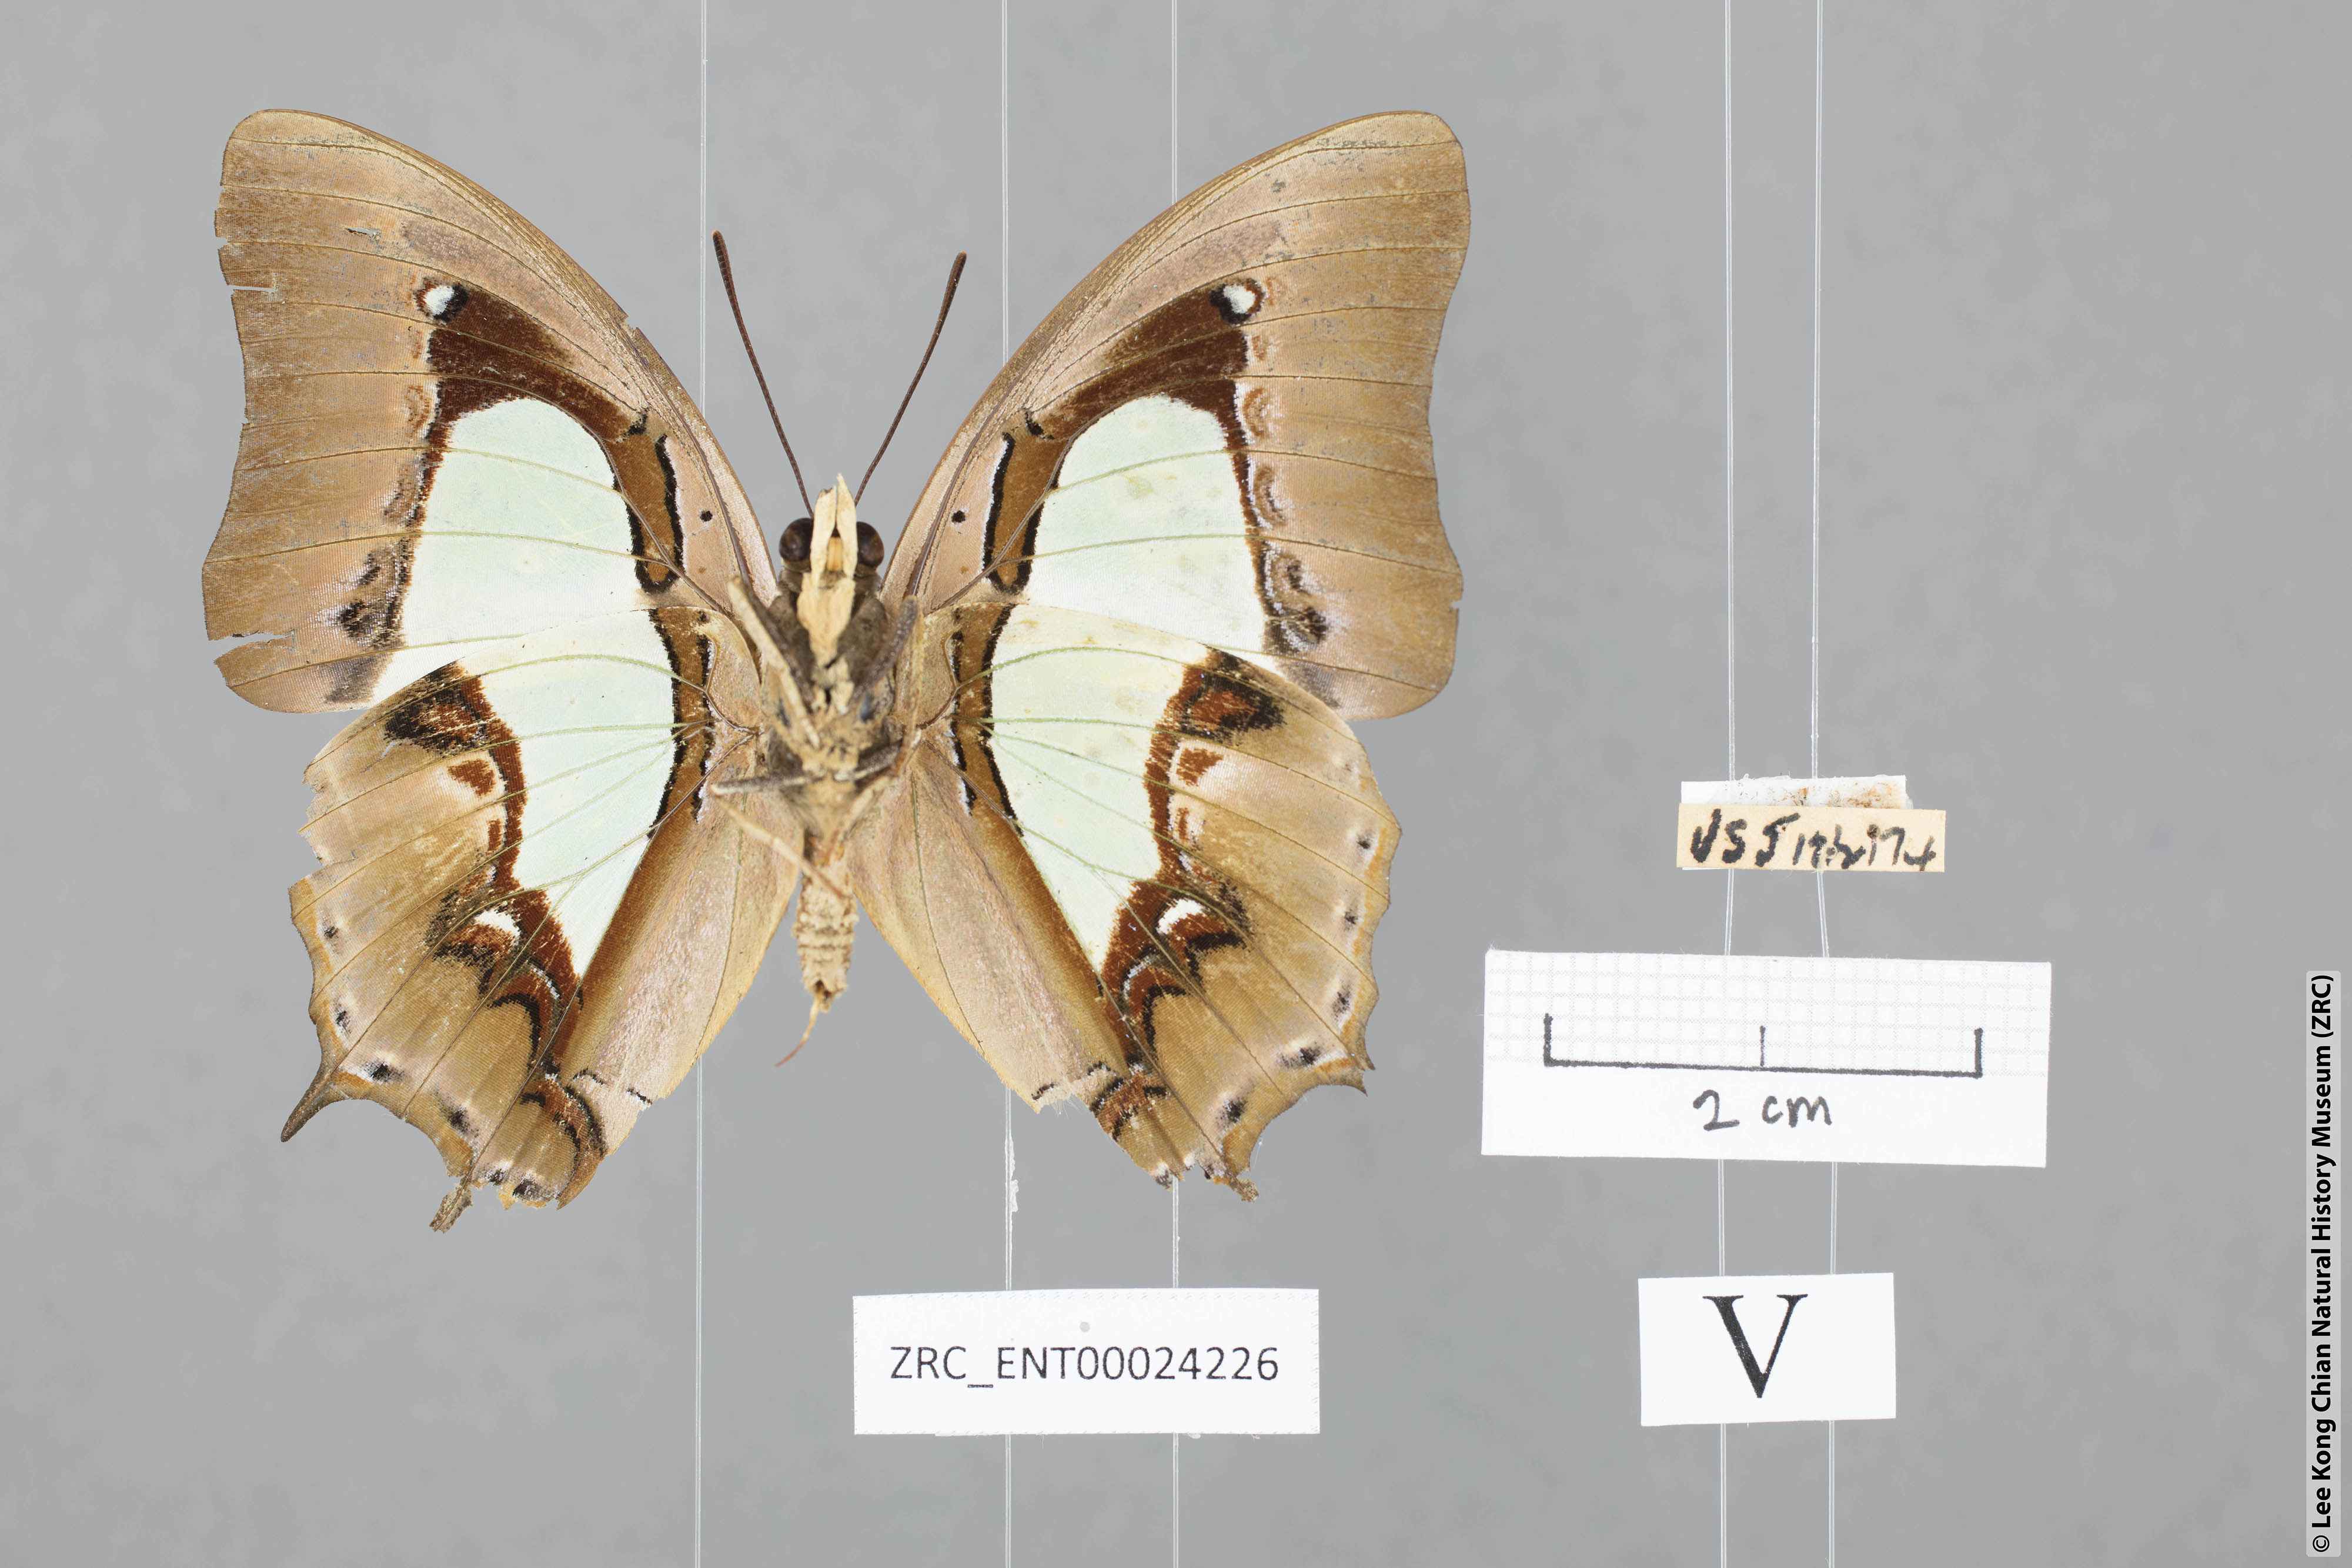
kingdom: Animalia
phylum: Arthropoda
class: Insecta
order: Lepidoptera
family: Nymphalidae
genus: Polyura
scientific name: Polyura hebe
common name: Plain nawab
